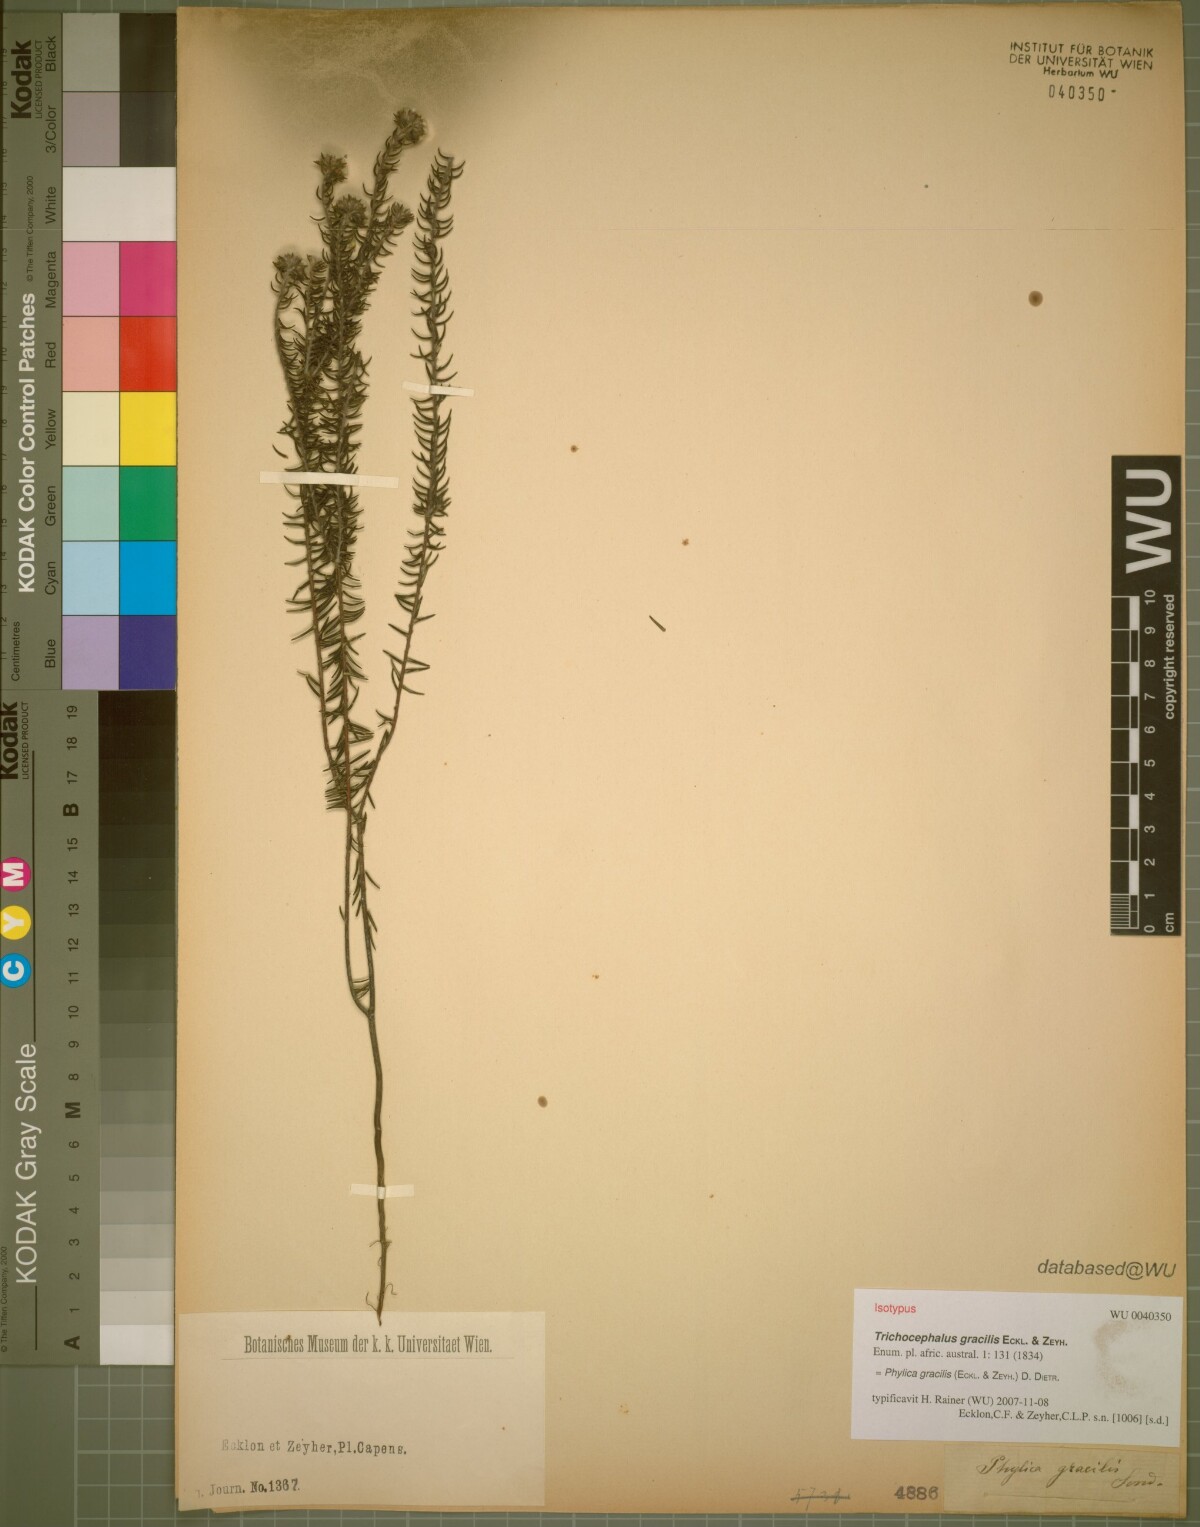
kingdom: Plantae
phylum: Tracheophyta
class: Magnoliopsida
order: Rosales
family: Rhamnaceae
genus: Phylica
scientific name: Phylica gracilis
